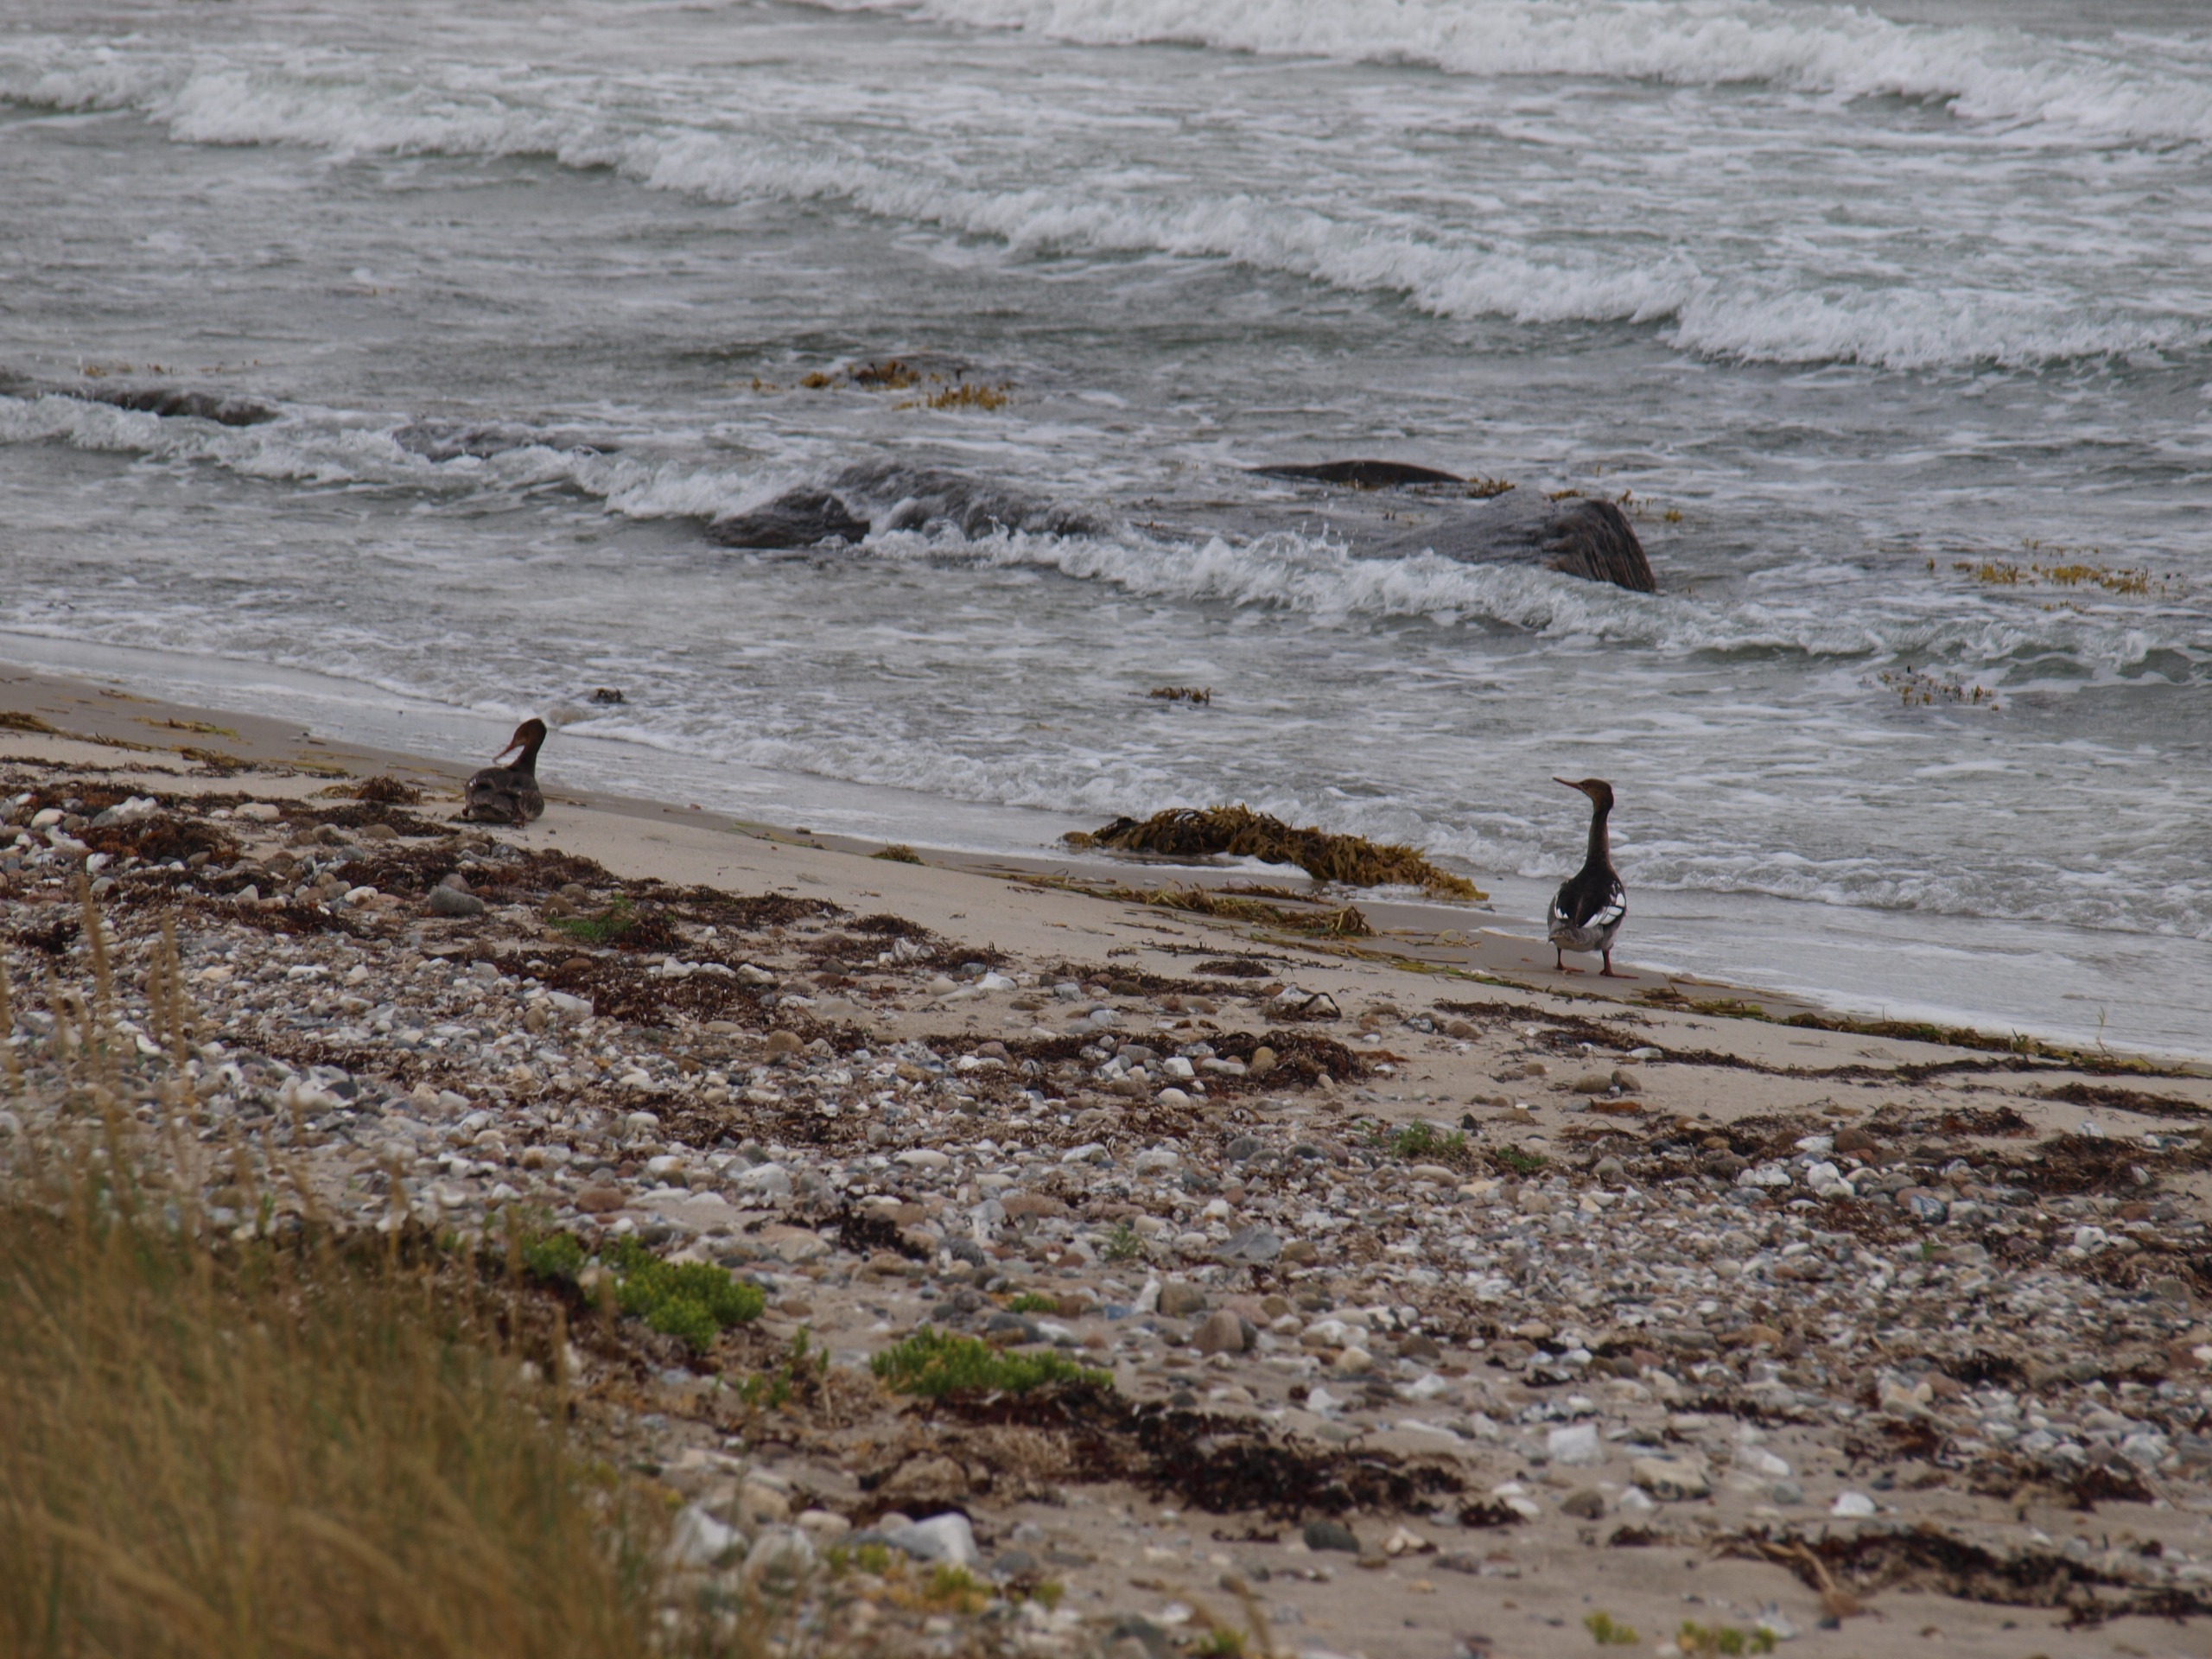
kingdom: Animalia
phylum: Chordata
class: Aves
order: Anseriformes
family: Anatidae
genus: Mergus
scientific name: Mergus serrator
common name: Toppet skallesluger
